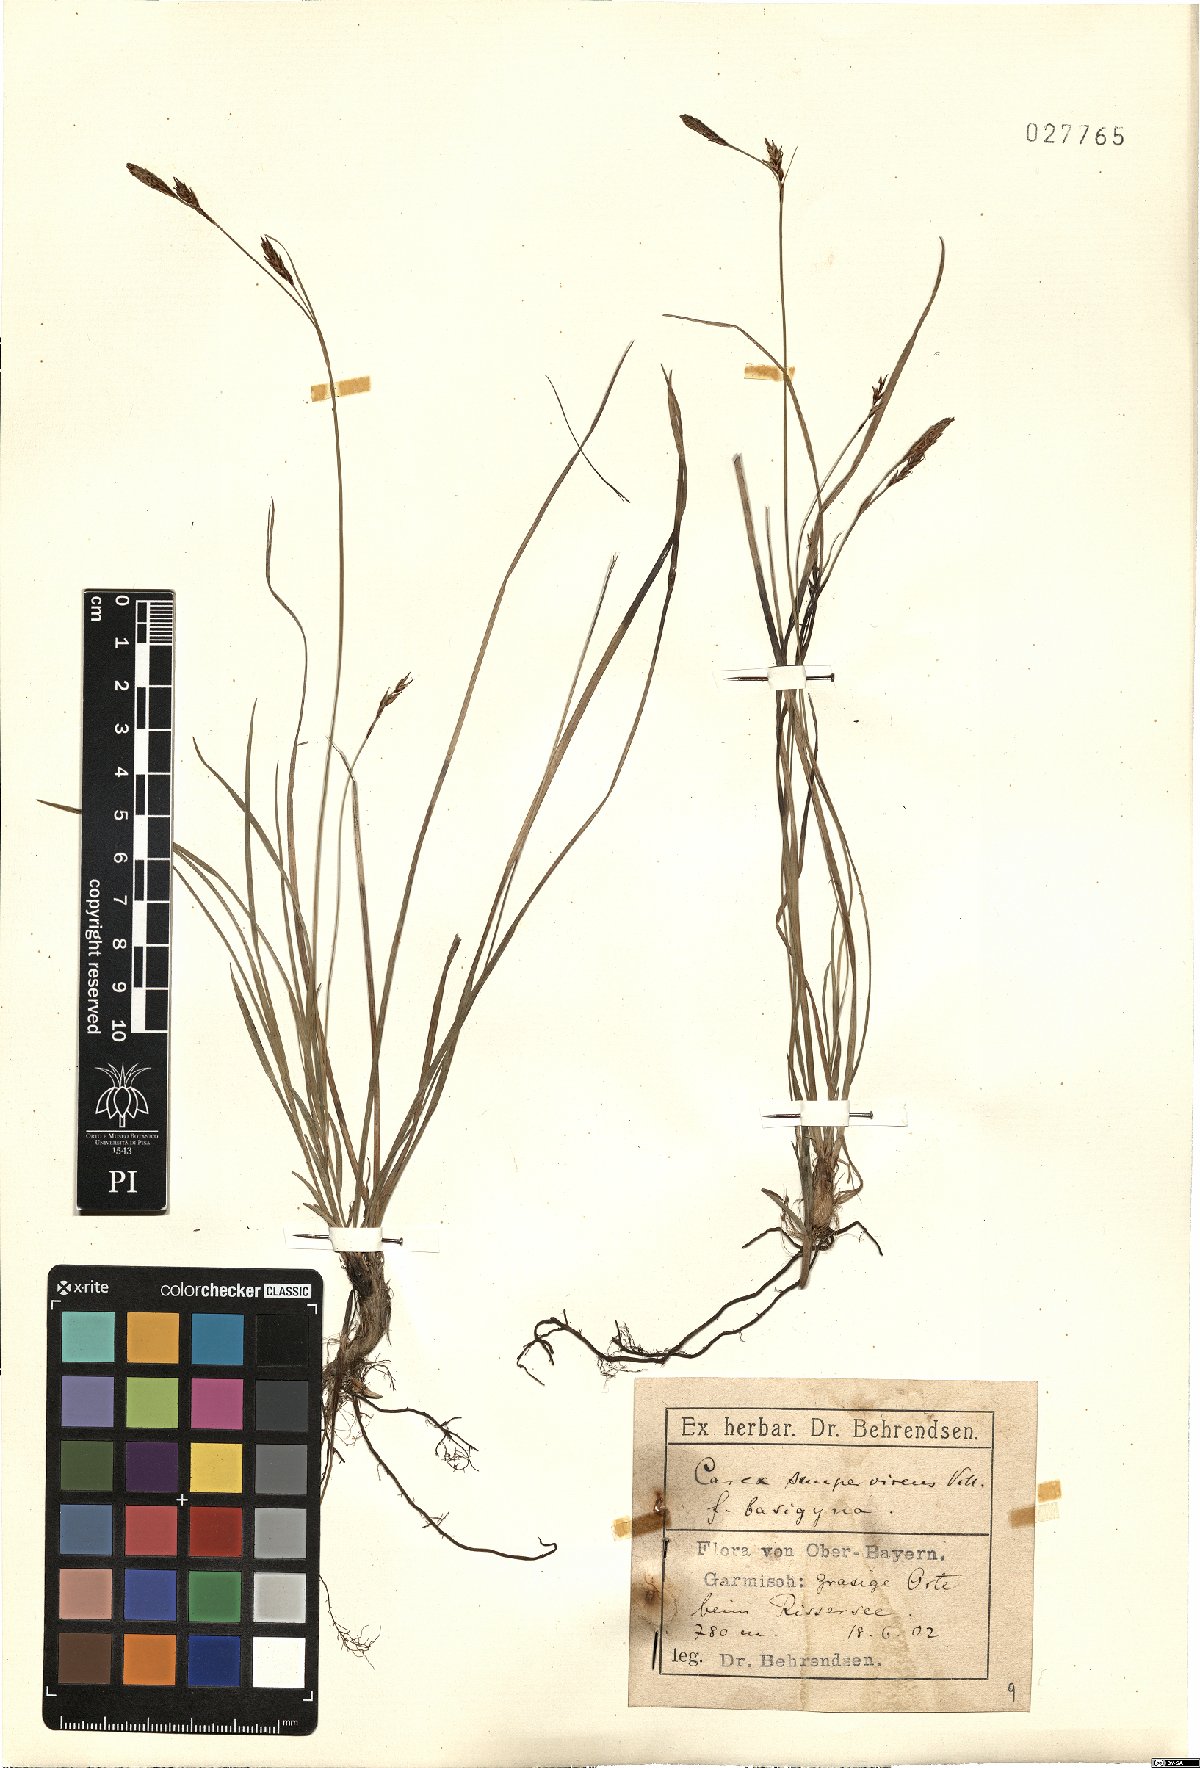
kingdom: Plantae
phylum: Tracheophyta
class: Liliopsida
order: Poales
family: Cyperaceae
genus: Carex
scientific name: Carex sempervirens
